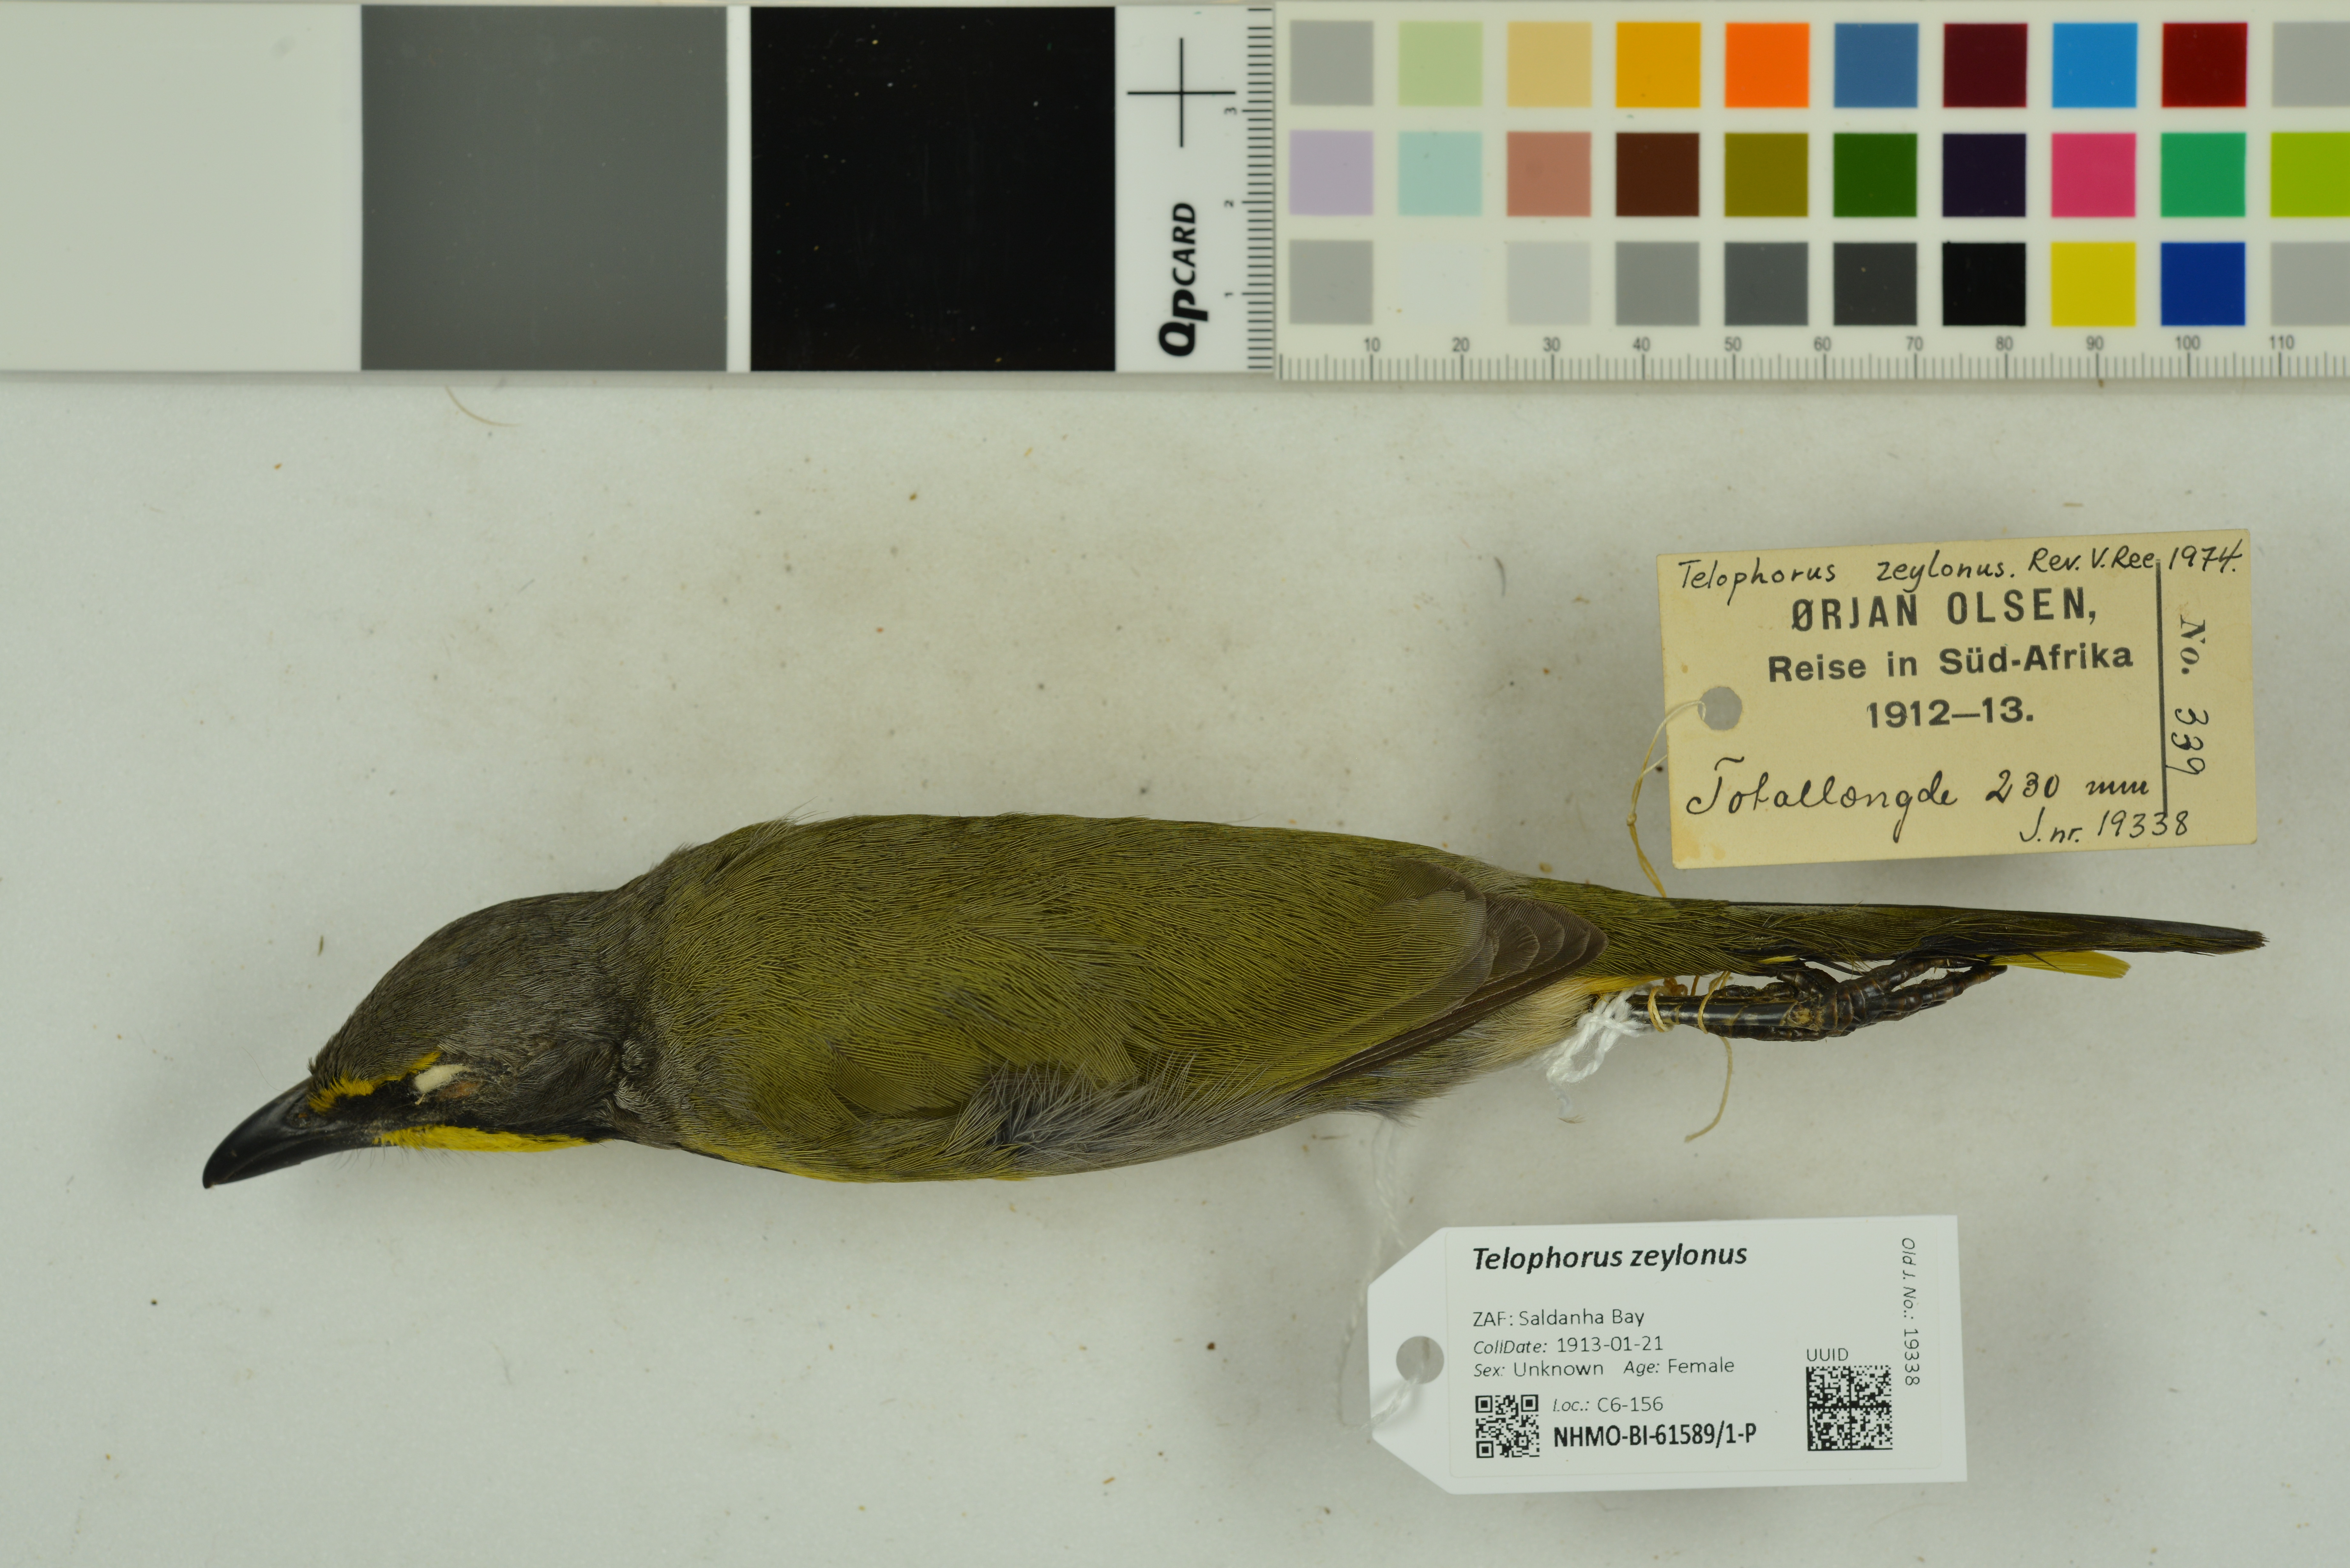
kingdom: Animalia
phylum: Chordata
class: Aves
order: Passeriformes
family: Malaconotidae
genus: Telophorus
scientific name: Telophorus zeylonus
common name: Bokmakierie
